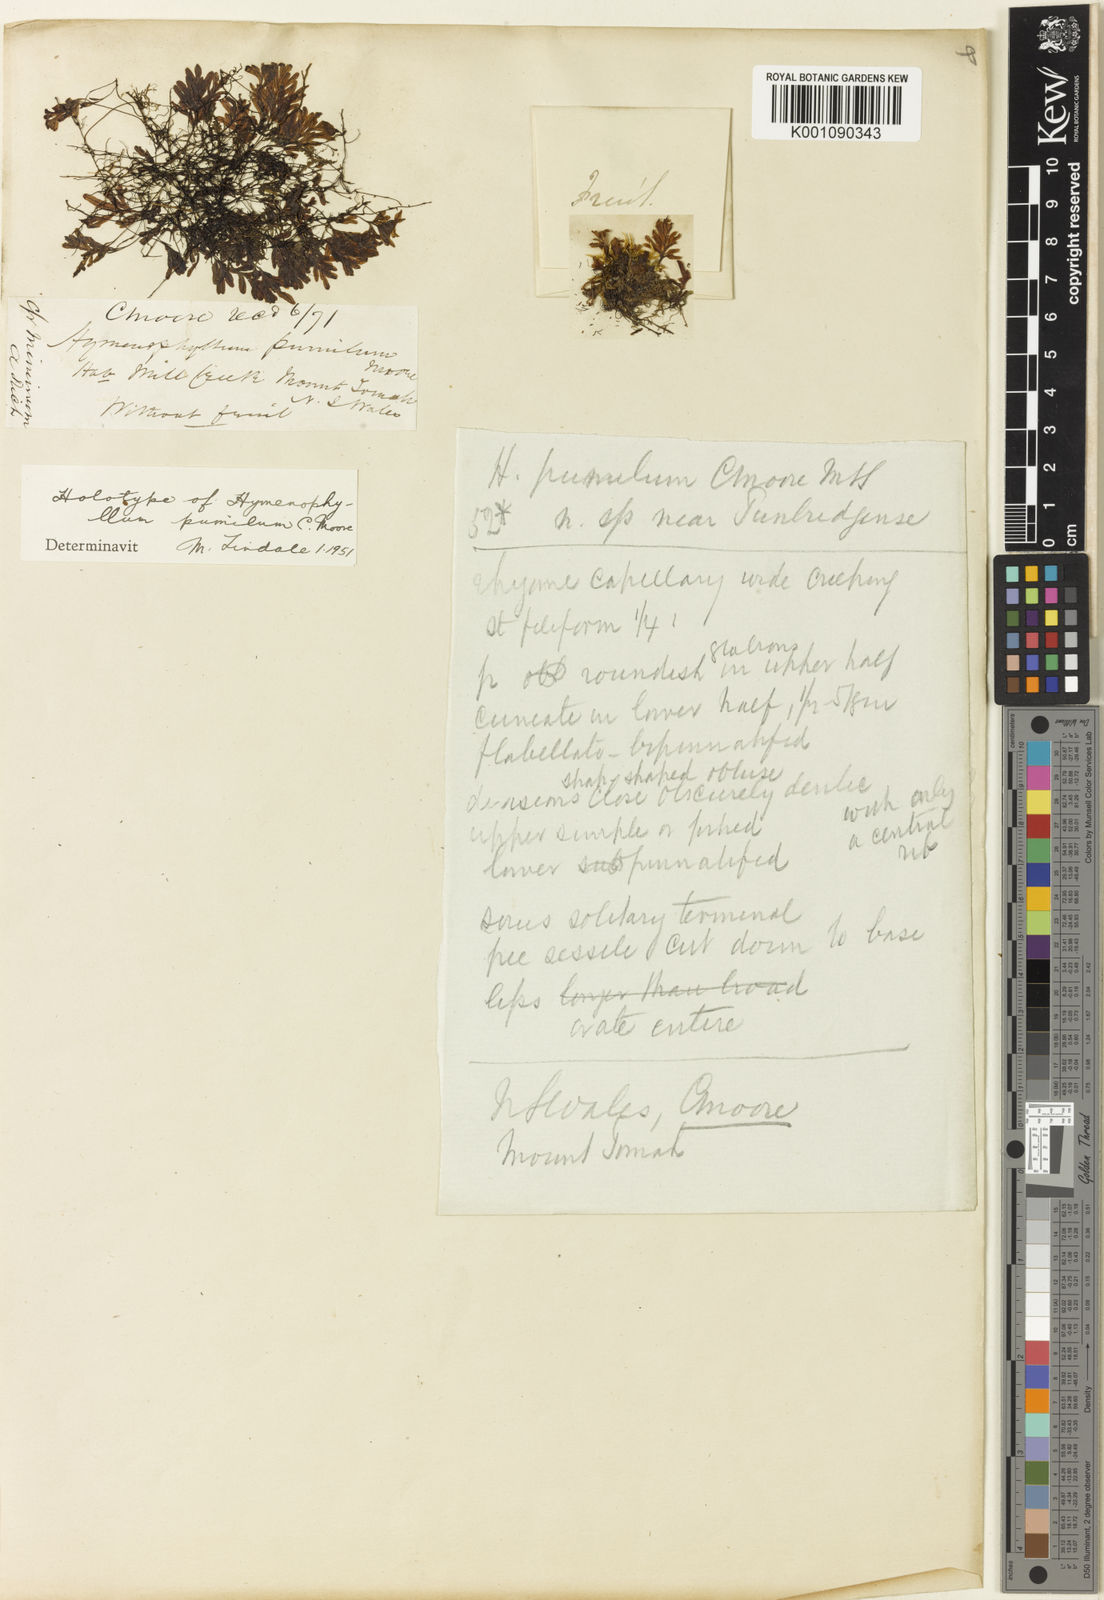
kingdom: Plantae
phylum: Tracheophyta
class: Polypodiopsida
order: Hymenophyllales
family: Hymenophyllaceae
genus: Hymenophyllum
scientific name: Hymenophyllum pumilum
